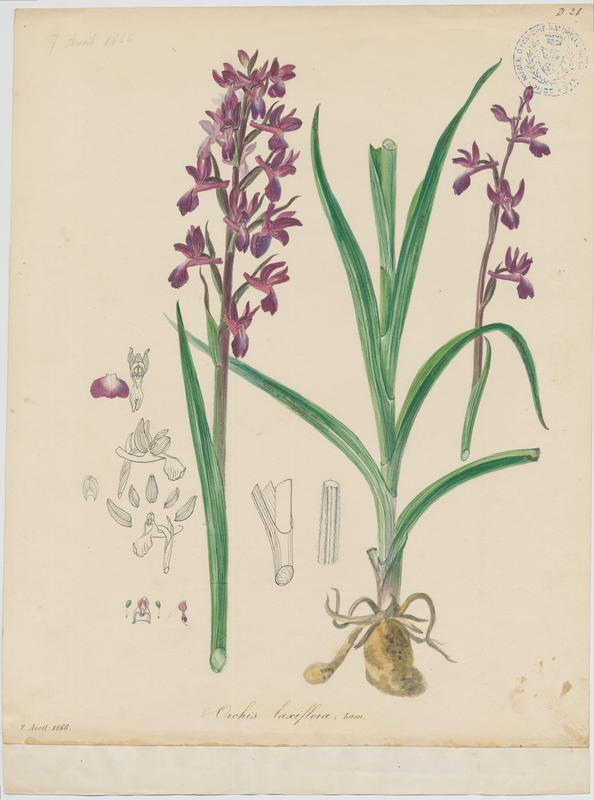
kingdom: Plantae
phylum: Tracheophyta
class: Liliopsida
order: Asparagales
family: Orchidaceae
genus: Anacamptis
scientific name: Anacamptis laxiflora
